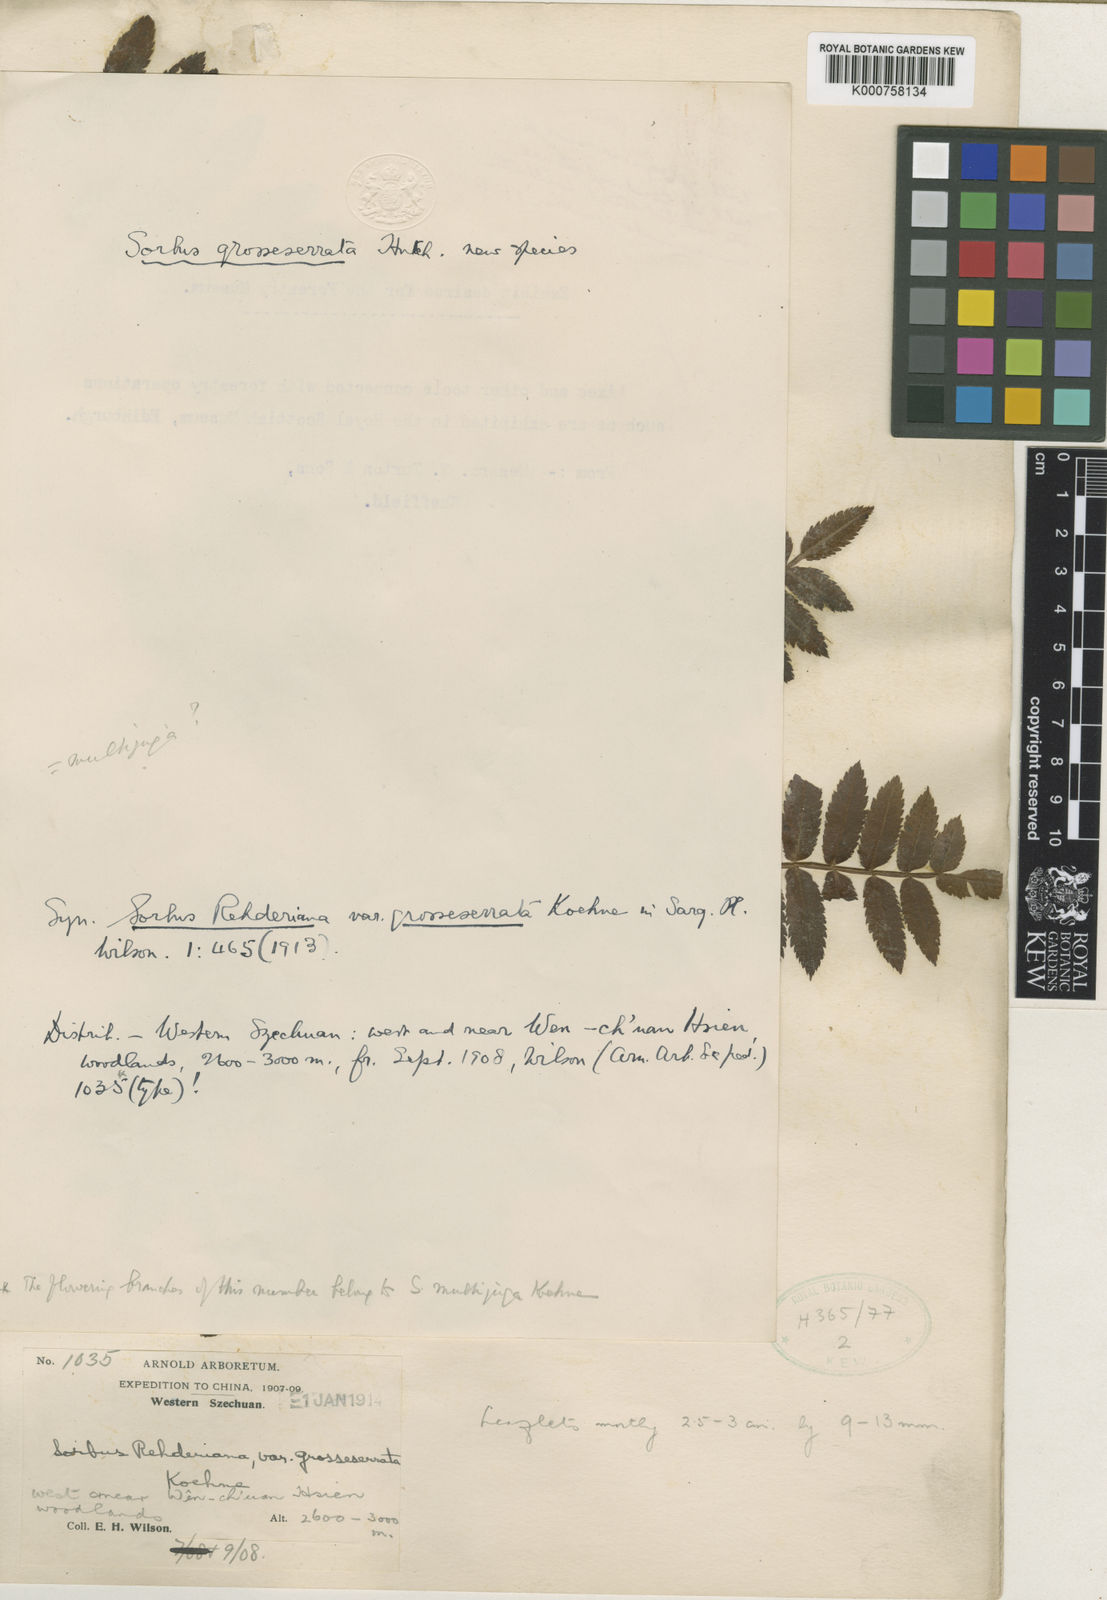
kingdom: Plantae
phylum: Tracheophyta
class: Magnoliopsida
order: Rosales
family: Rosaceae
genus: Sorbus
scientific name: Sorbus rehderiana
